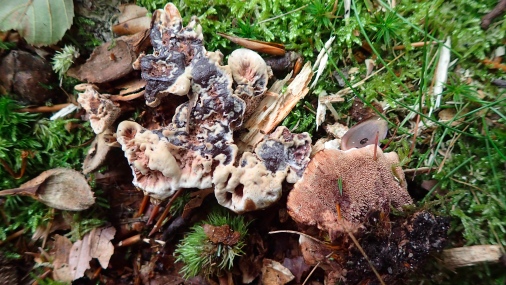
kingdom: Fungi
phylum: Basidiomycota
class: Agaricomycetes
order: Thelephorales
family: Bankeraceae
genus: Hydnellum
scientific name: Hydnellum concrescens
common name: bæltet korkpigsvamp
